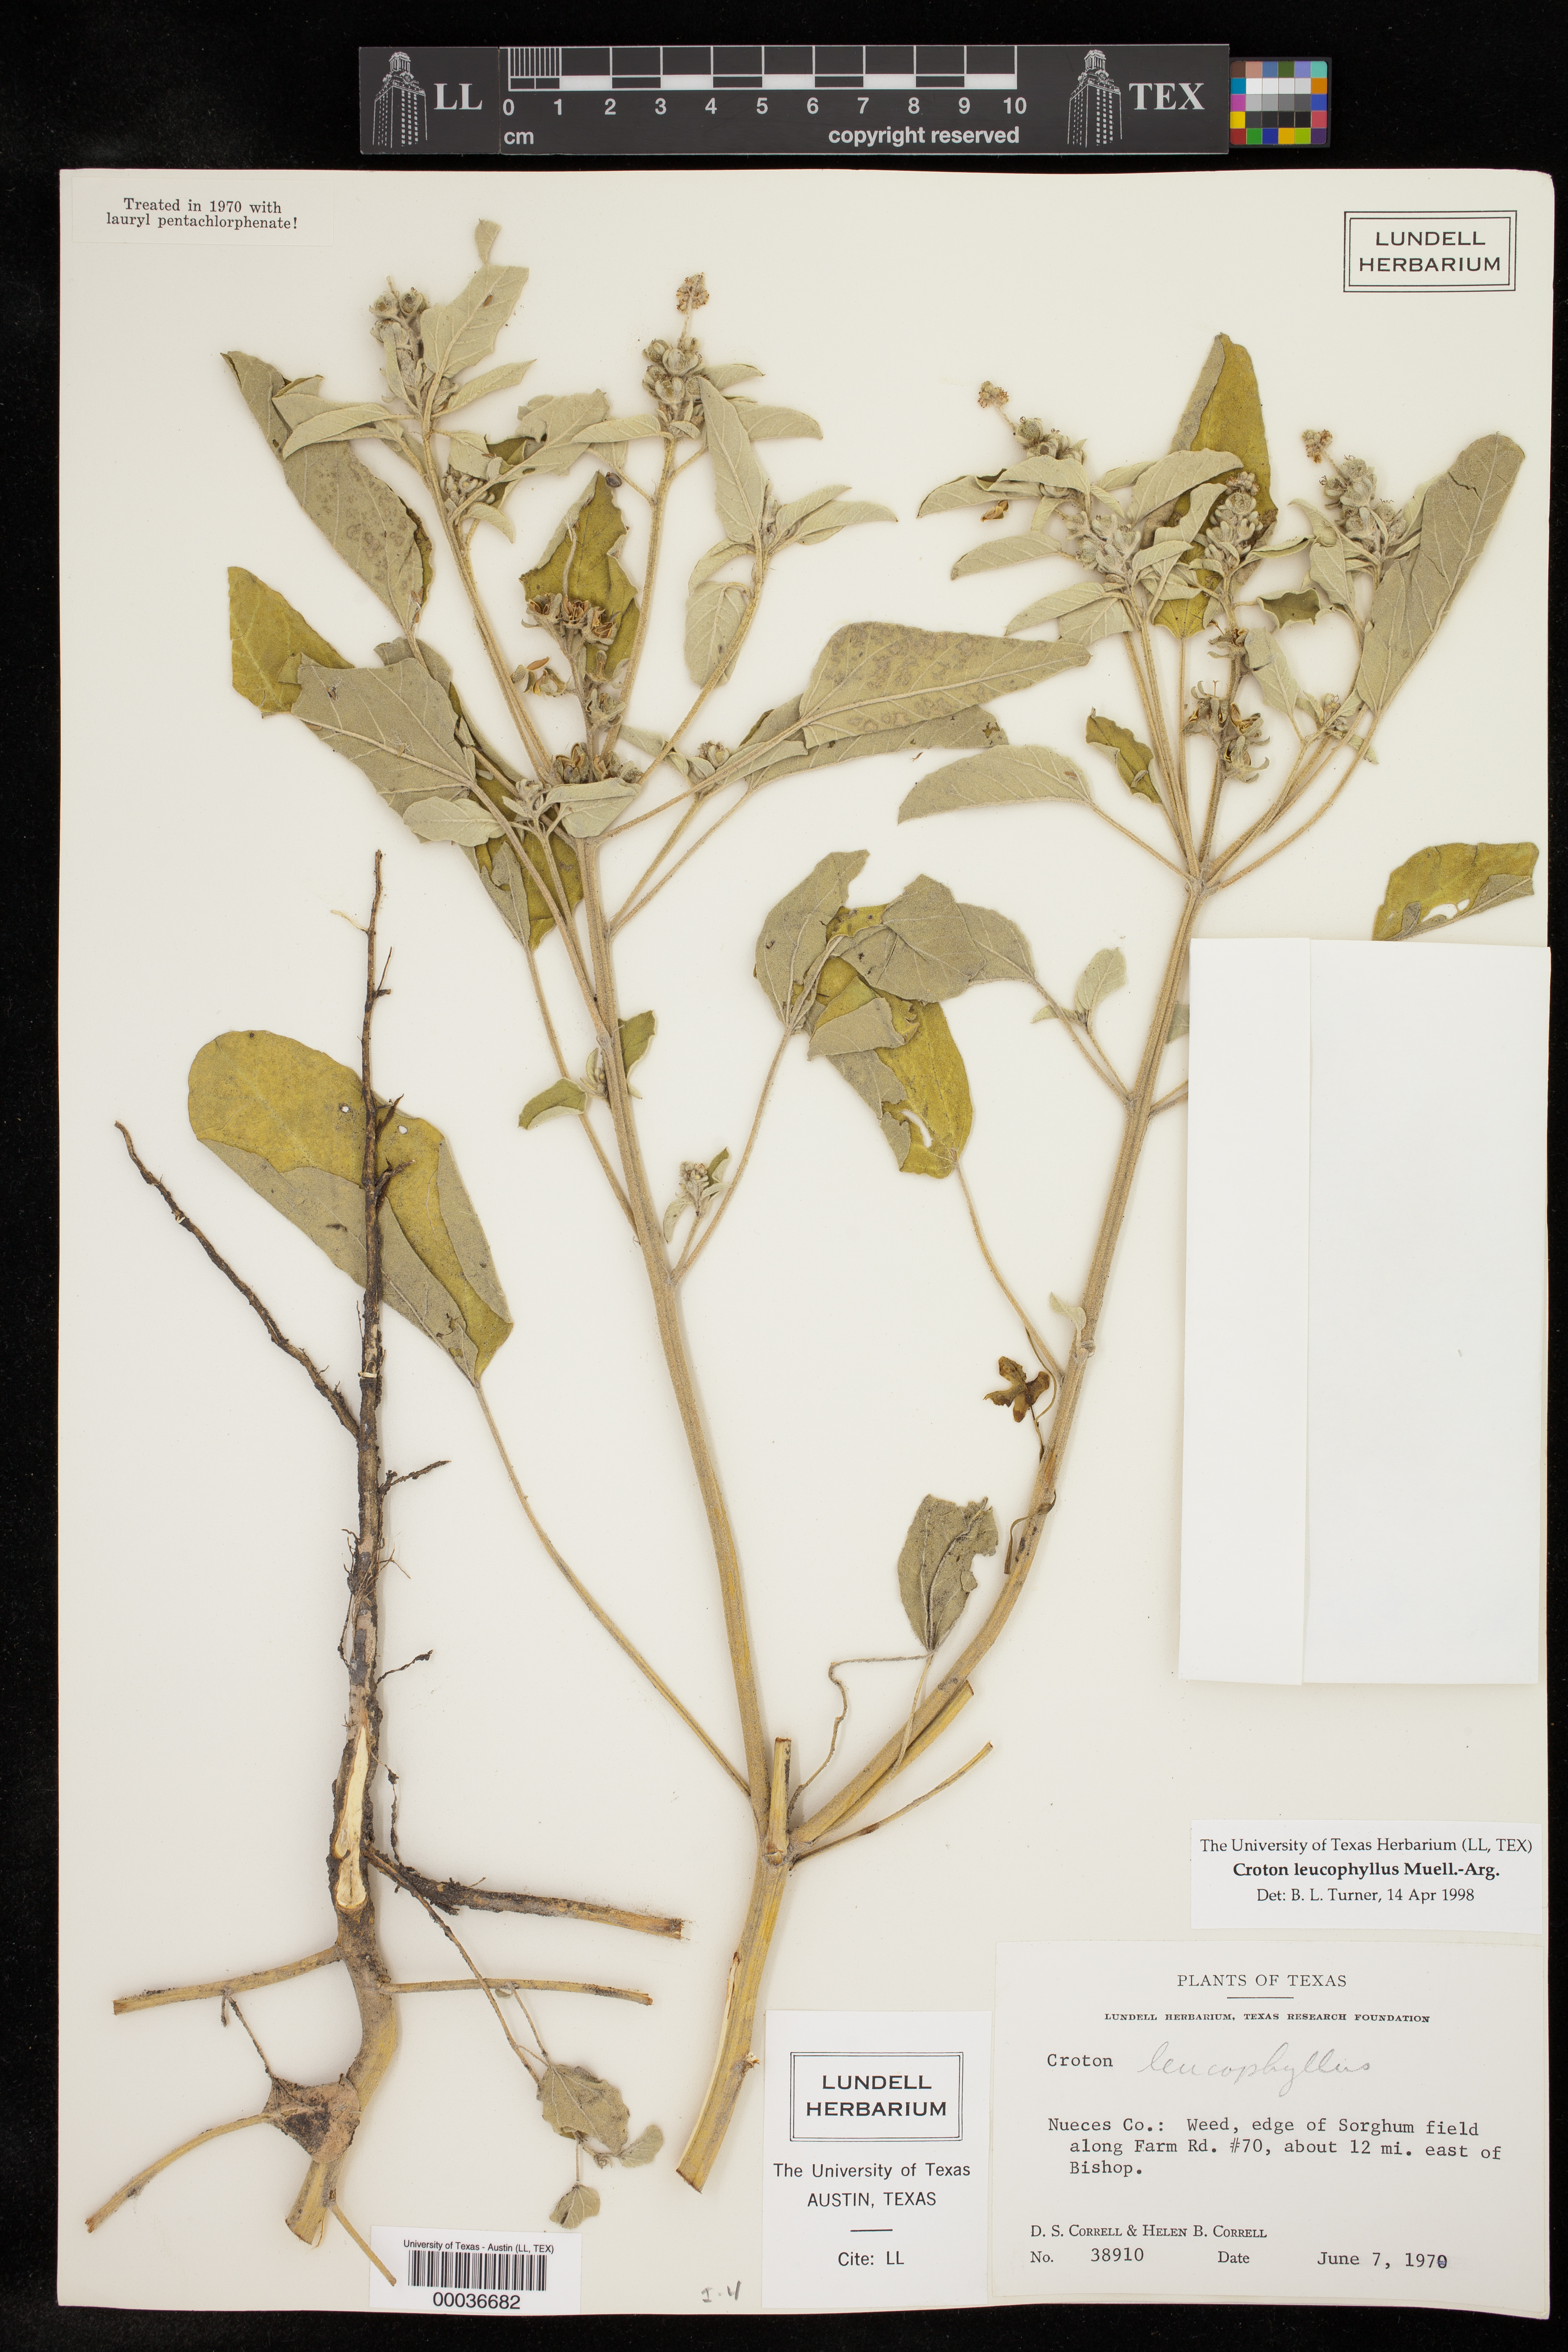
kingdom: Plantae
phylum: Tracheophyta
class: Magnoliopsida
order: Malpighiales
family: Euphorbiaceae
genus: Croton
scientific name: Croton leucophyllus
